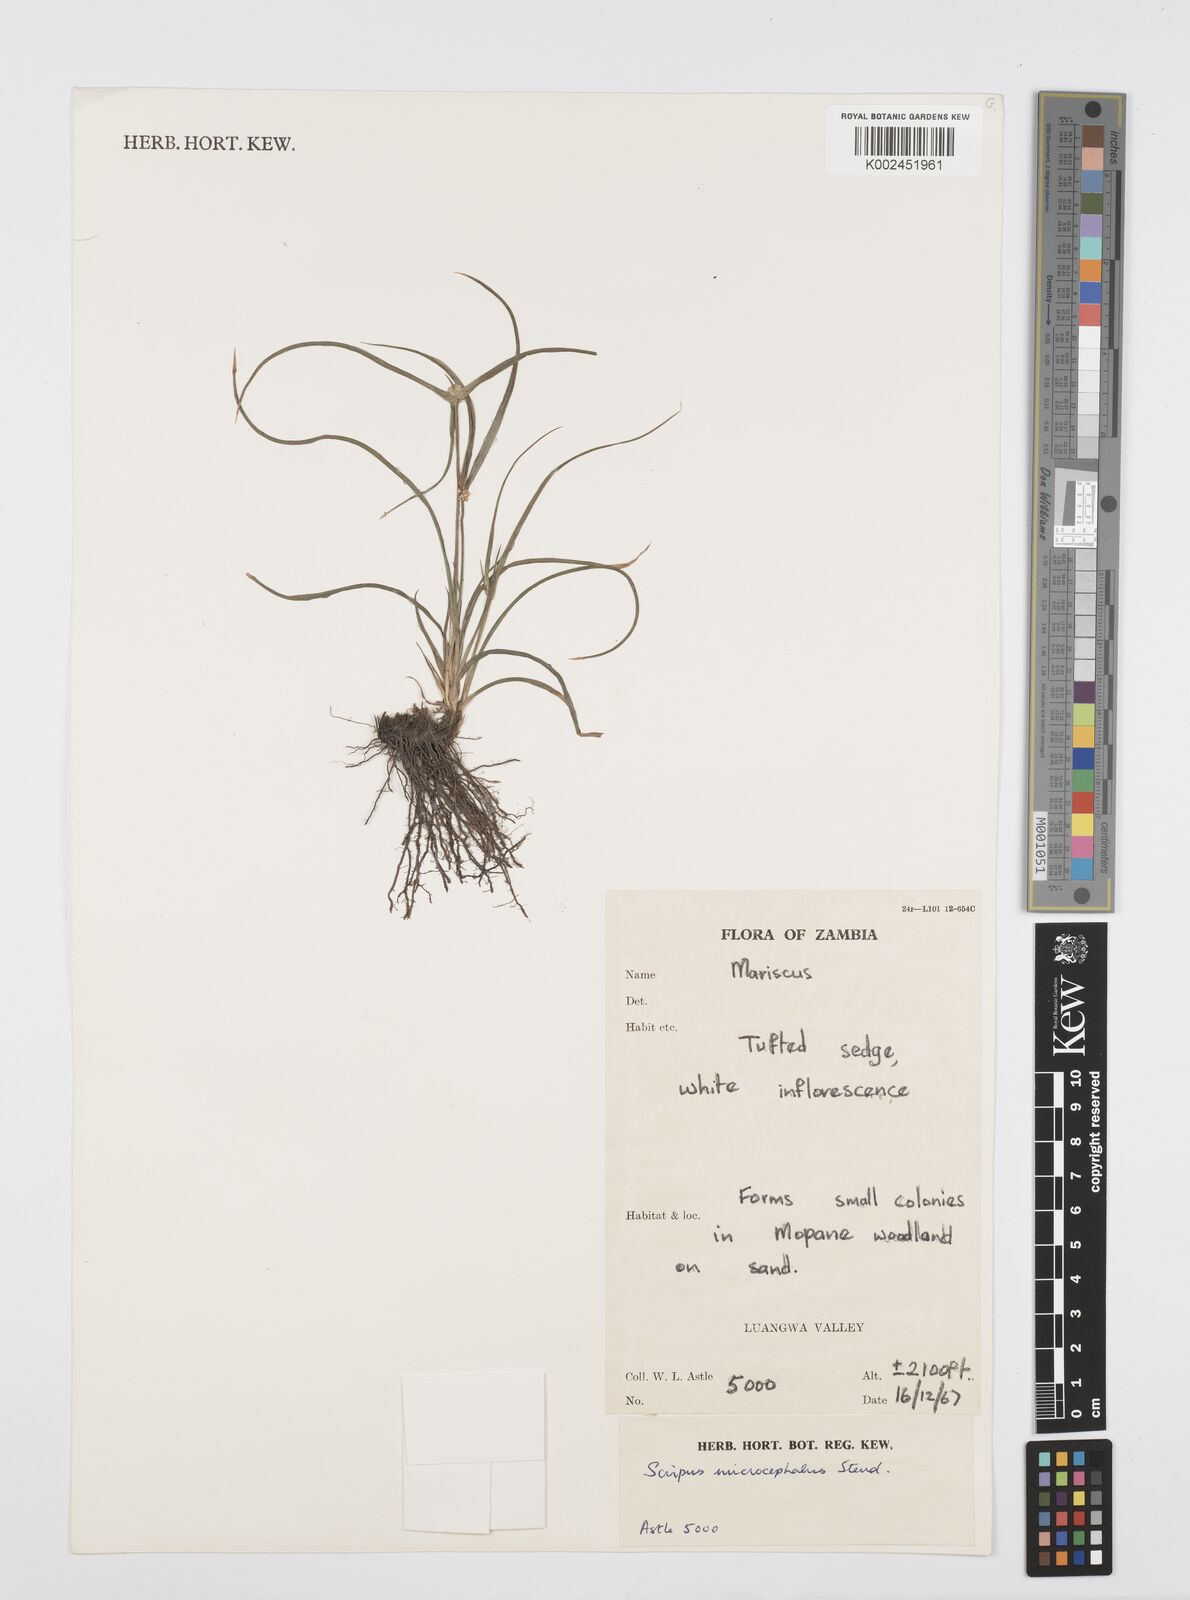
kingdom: Plantae
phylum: Tracheophyta
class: Liliopsida
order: Poales
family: Cyperaceae
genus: Cyperus
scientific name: Cyperus microcephalus
